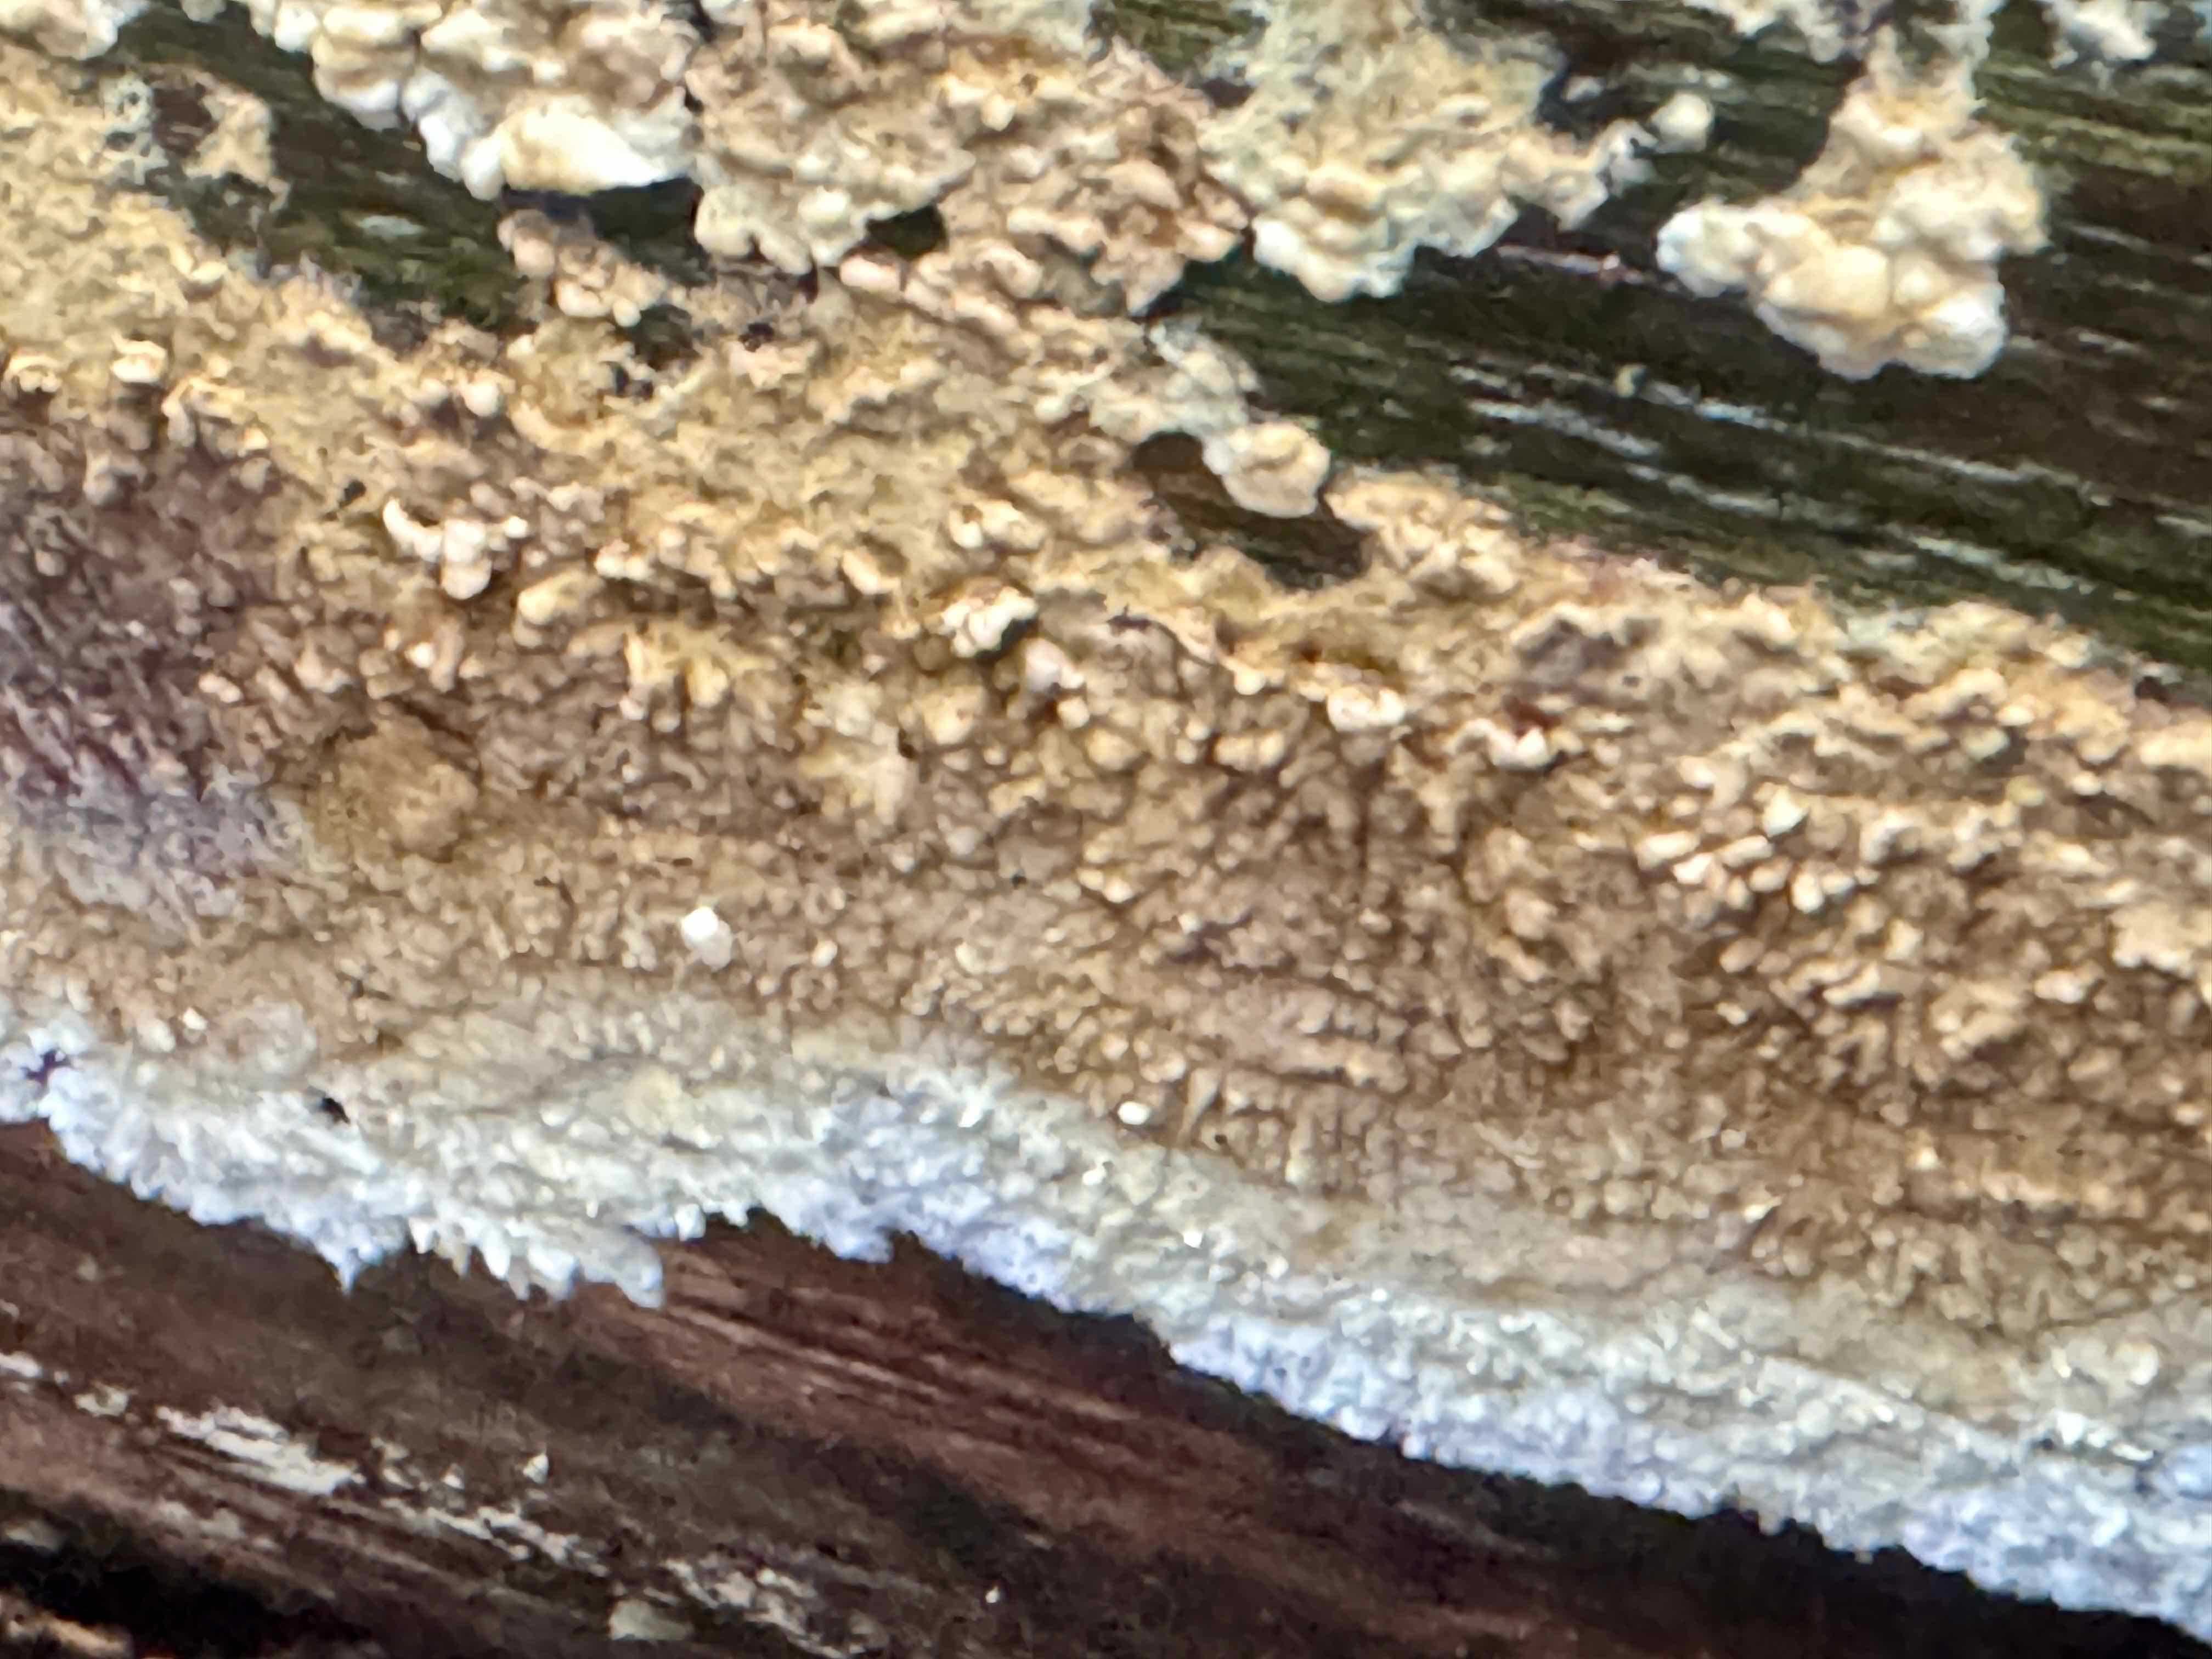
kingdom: Fungi
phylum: Basidiomycota
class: Agaricomycetes
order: Boletales
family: Coniophoraceae
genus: Coniophora
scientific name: Coniophora puteana
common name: gul tømmersvamp
